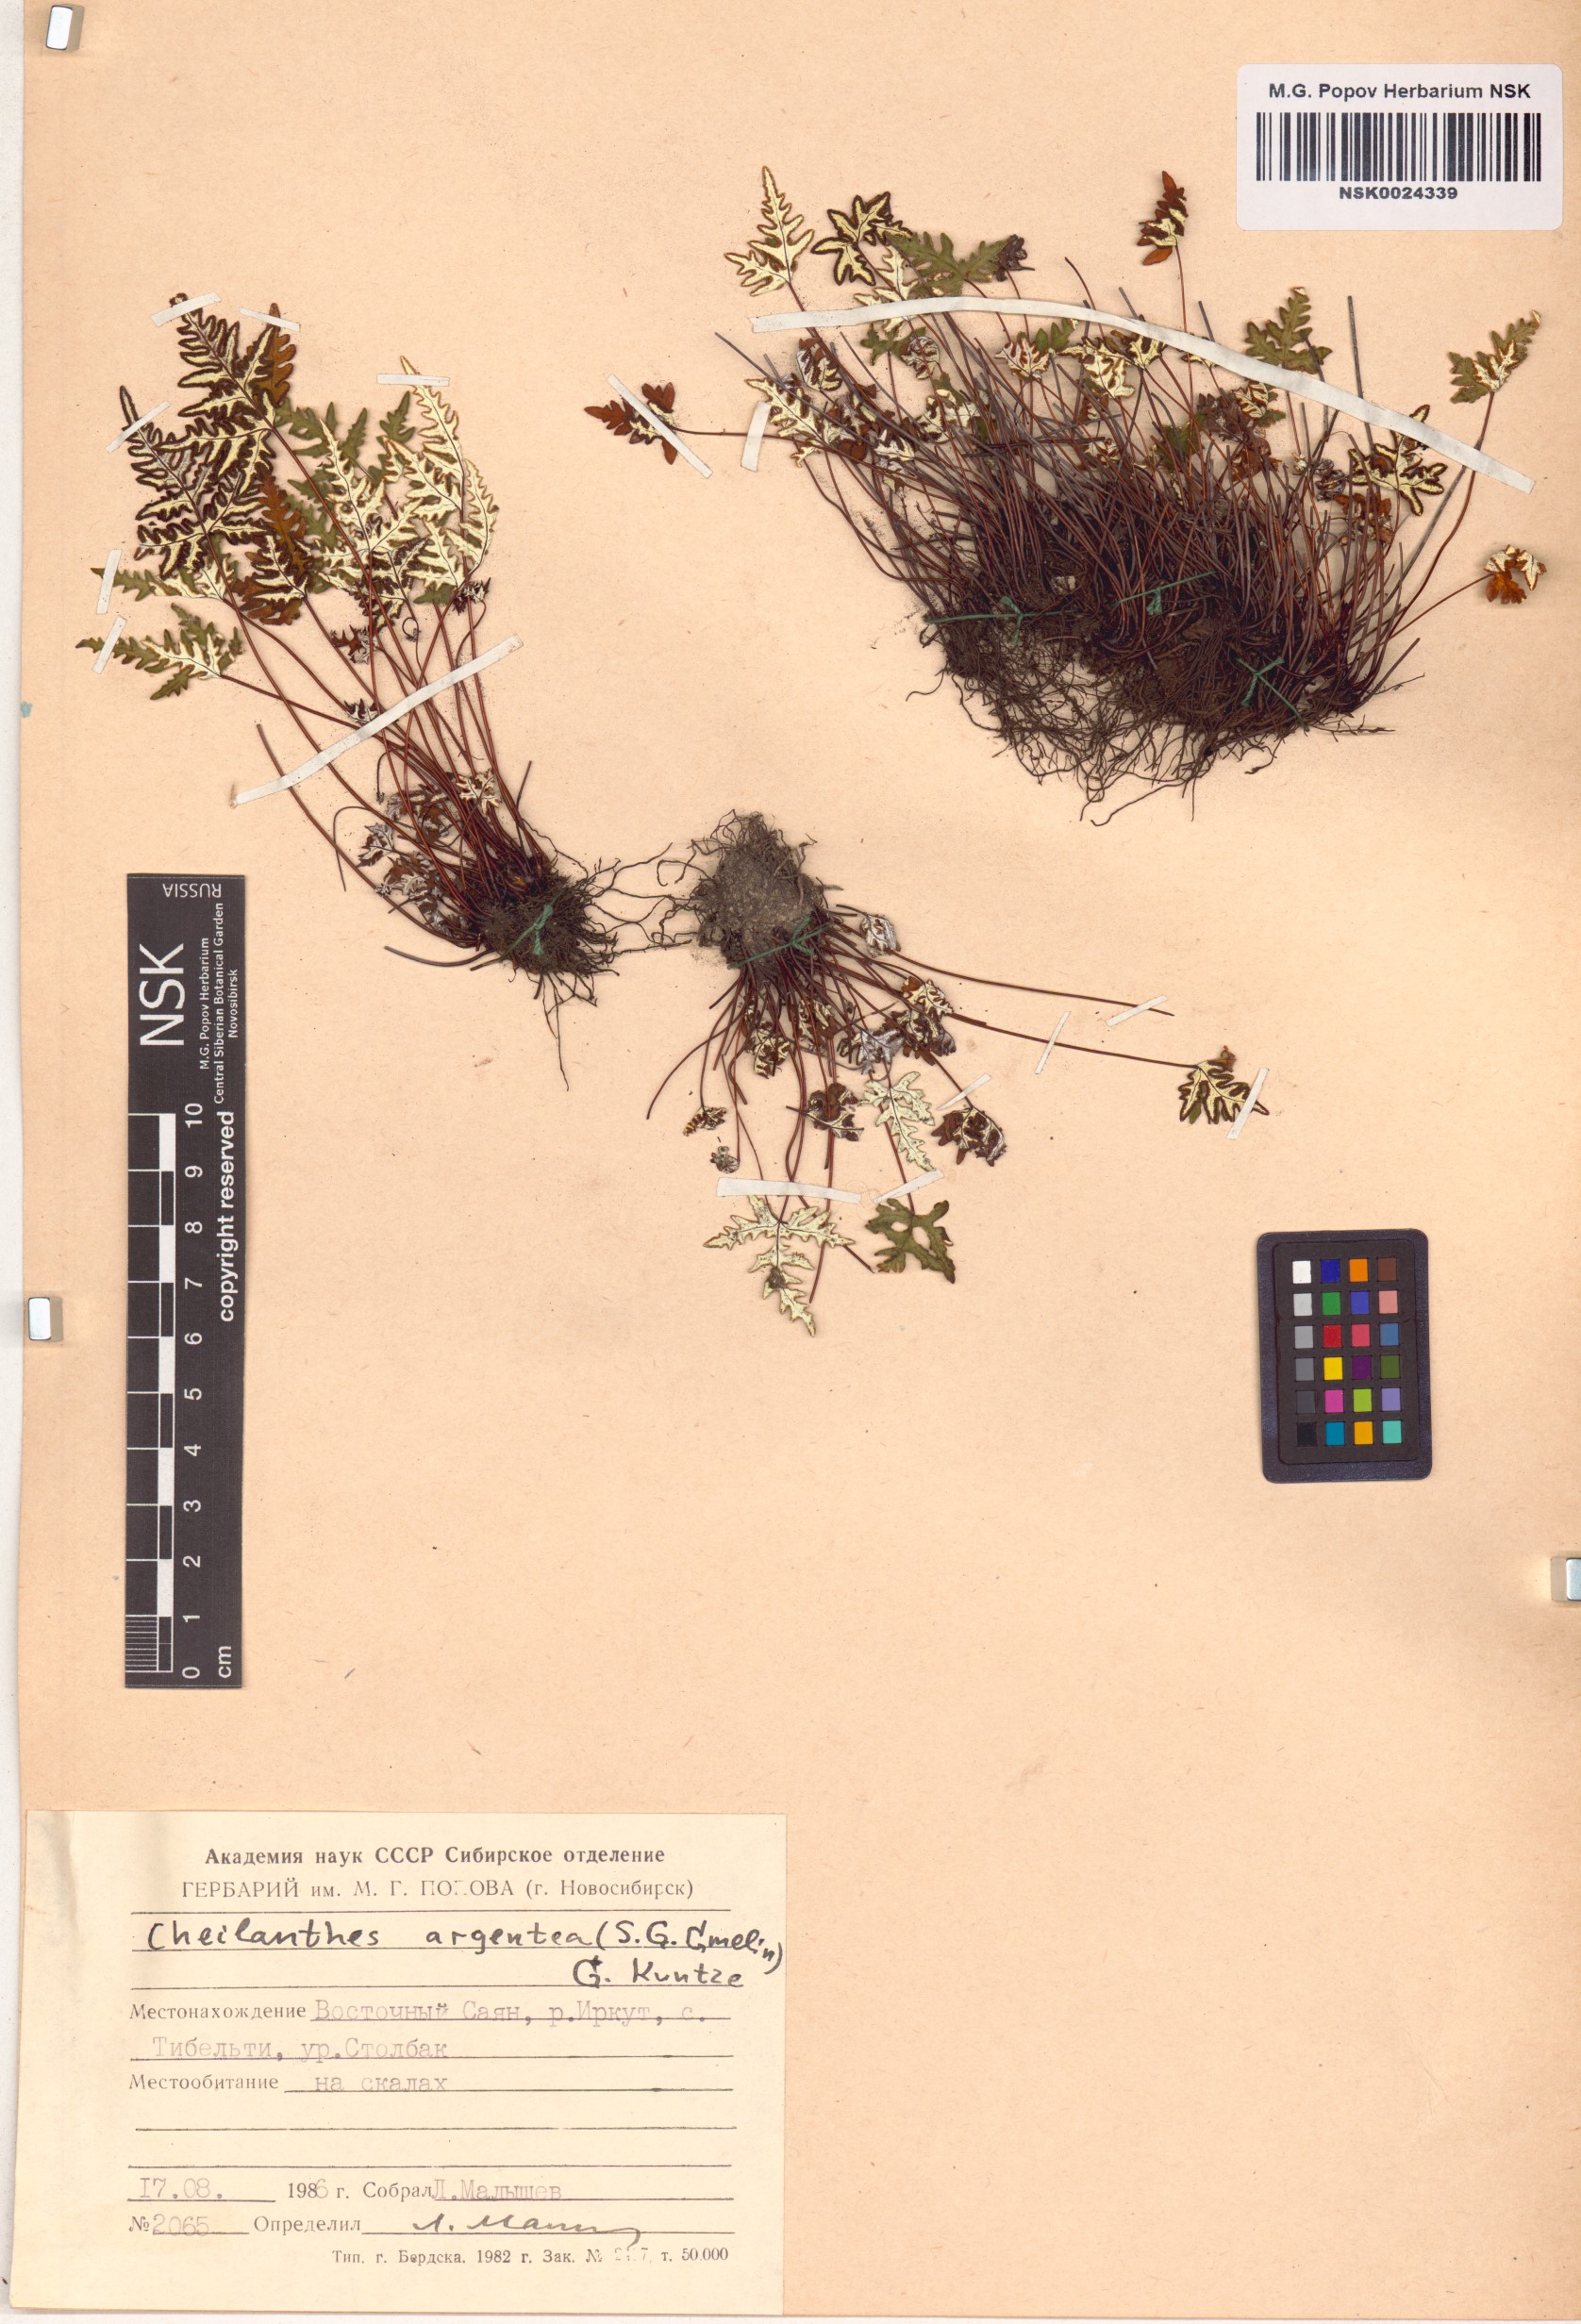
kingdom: Plantae
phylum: Tracheophyta
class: Polypodiopsida
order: Polypodiales
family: Pteridaceae
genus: Aleuritopteris
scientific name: Aleuritopteris argentea
